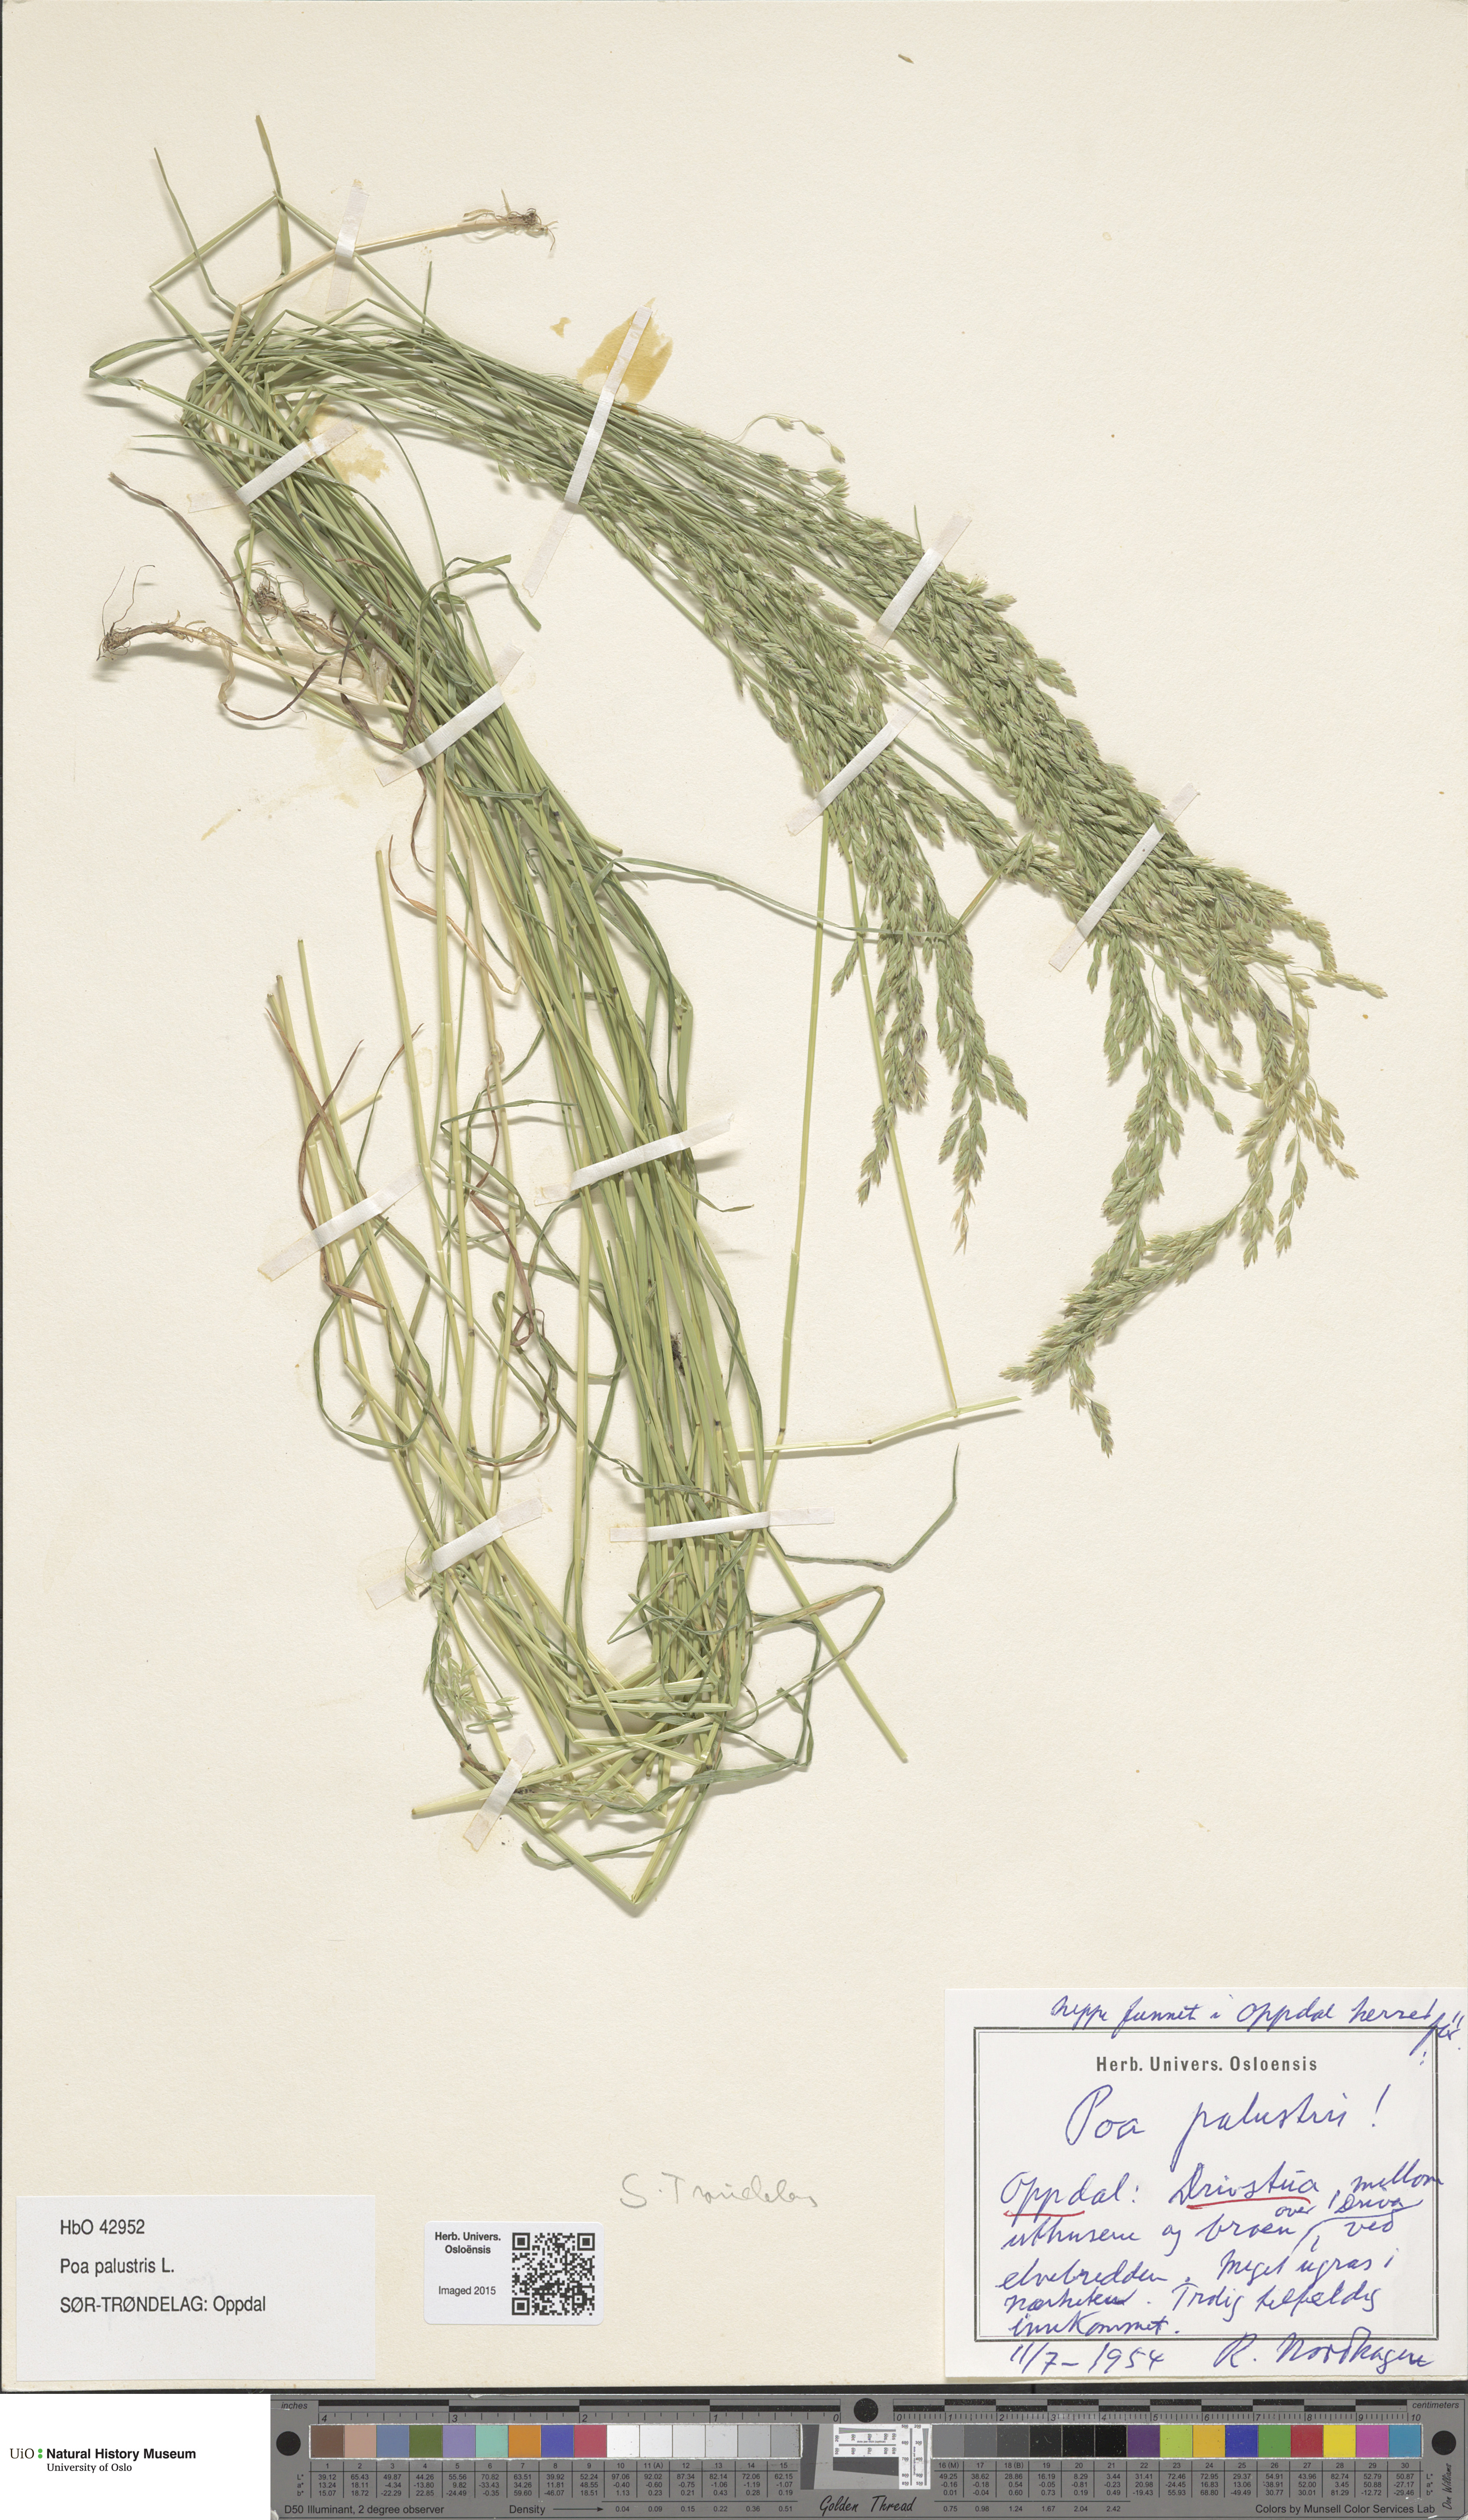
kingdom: Plantae
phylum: Tracheophyta
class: Liliopsida
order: Poales
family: Poaceae
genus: Poa
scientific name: Poa palustris
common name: Swamp meadow-grass
